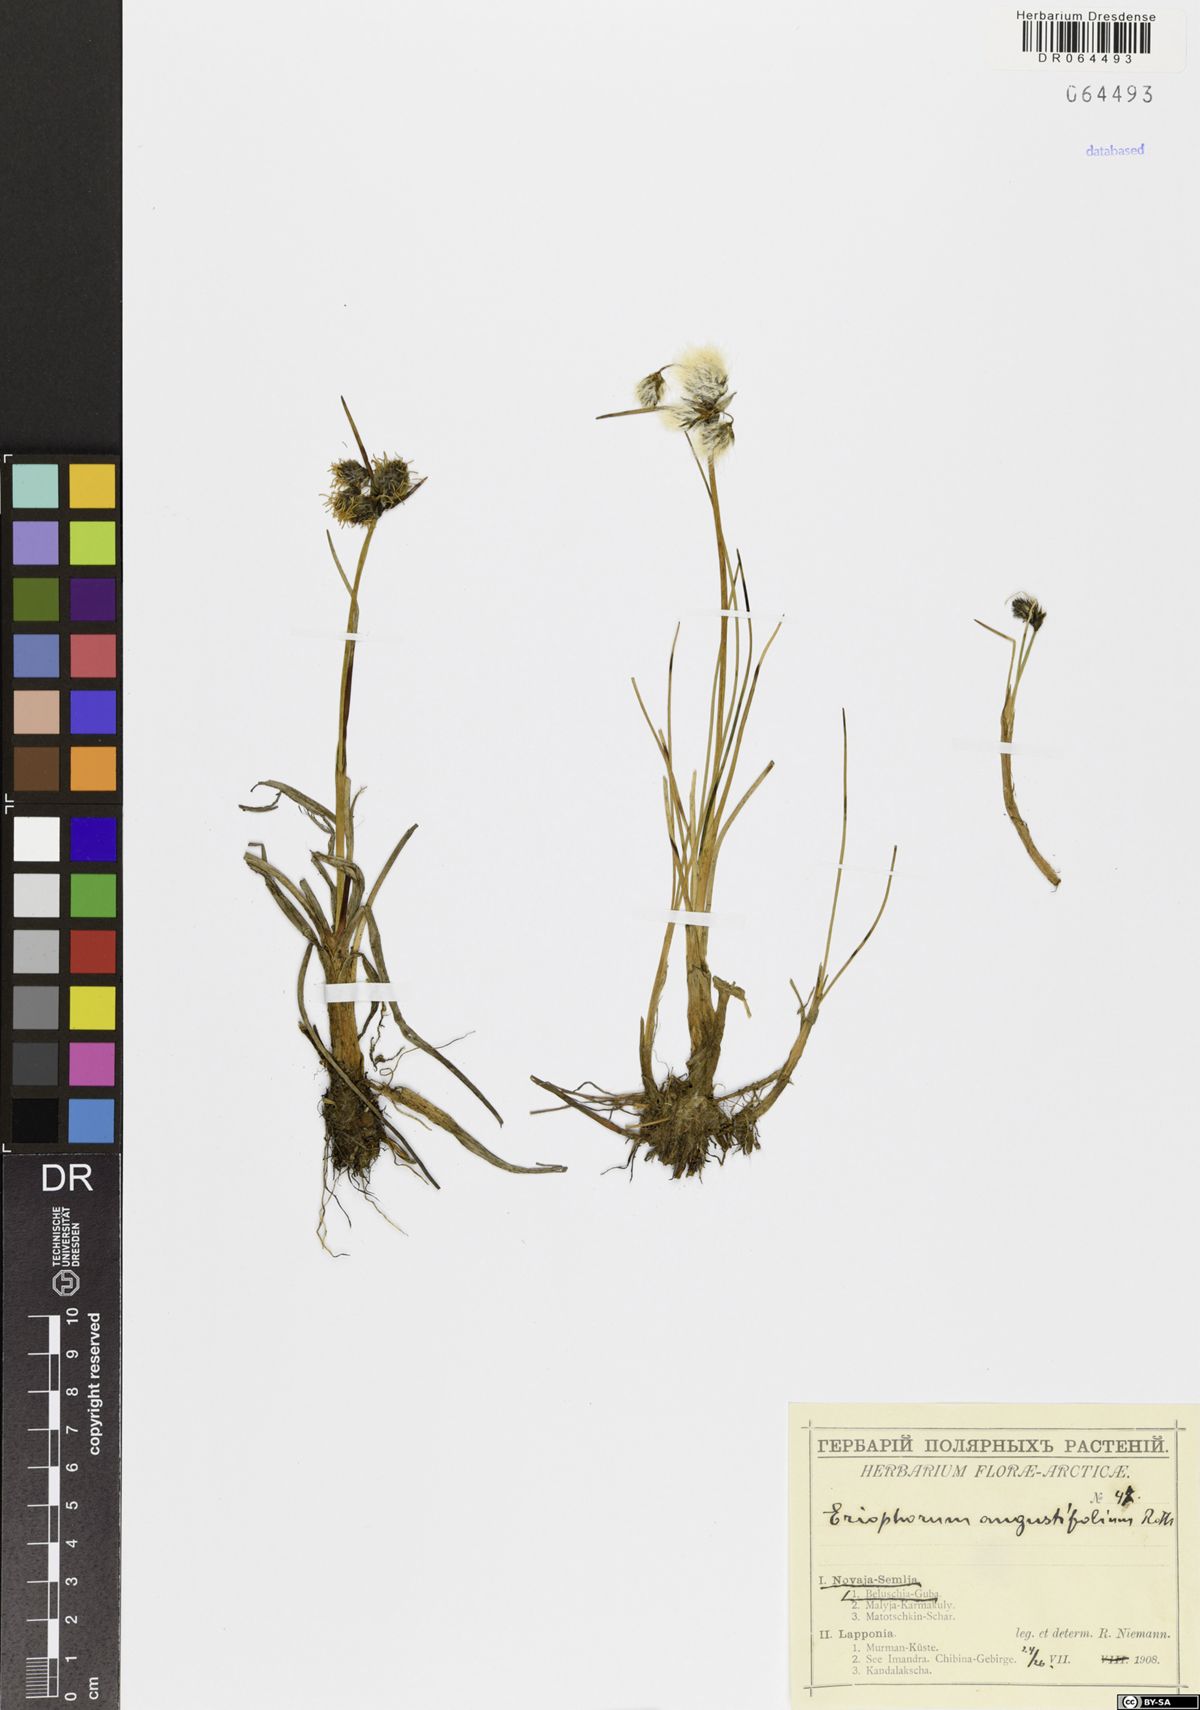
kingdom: Plantae
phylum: Tracheophyta
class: Liliopsida
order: Poales
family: Cyperaceae
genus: Eriophorum
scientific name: Eriophorum angustifolium
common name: Common cottongrass
